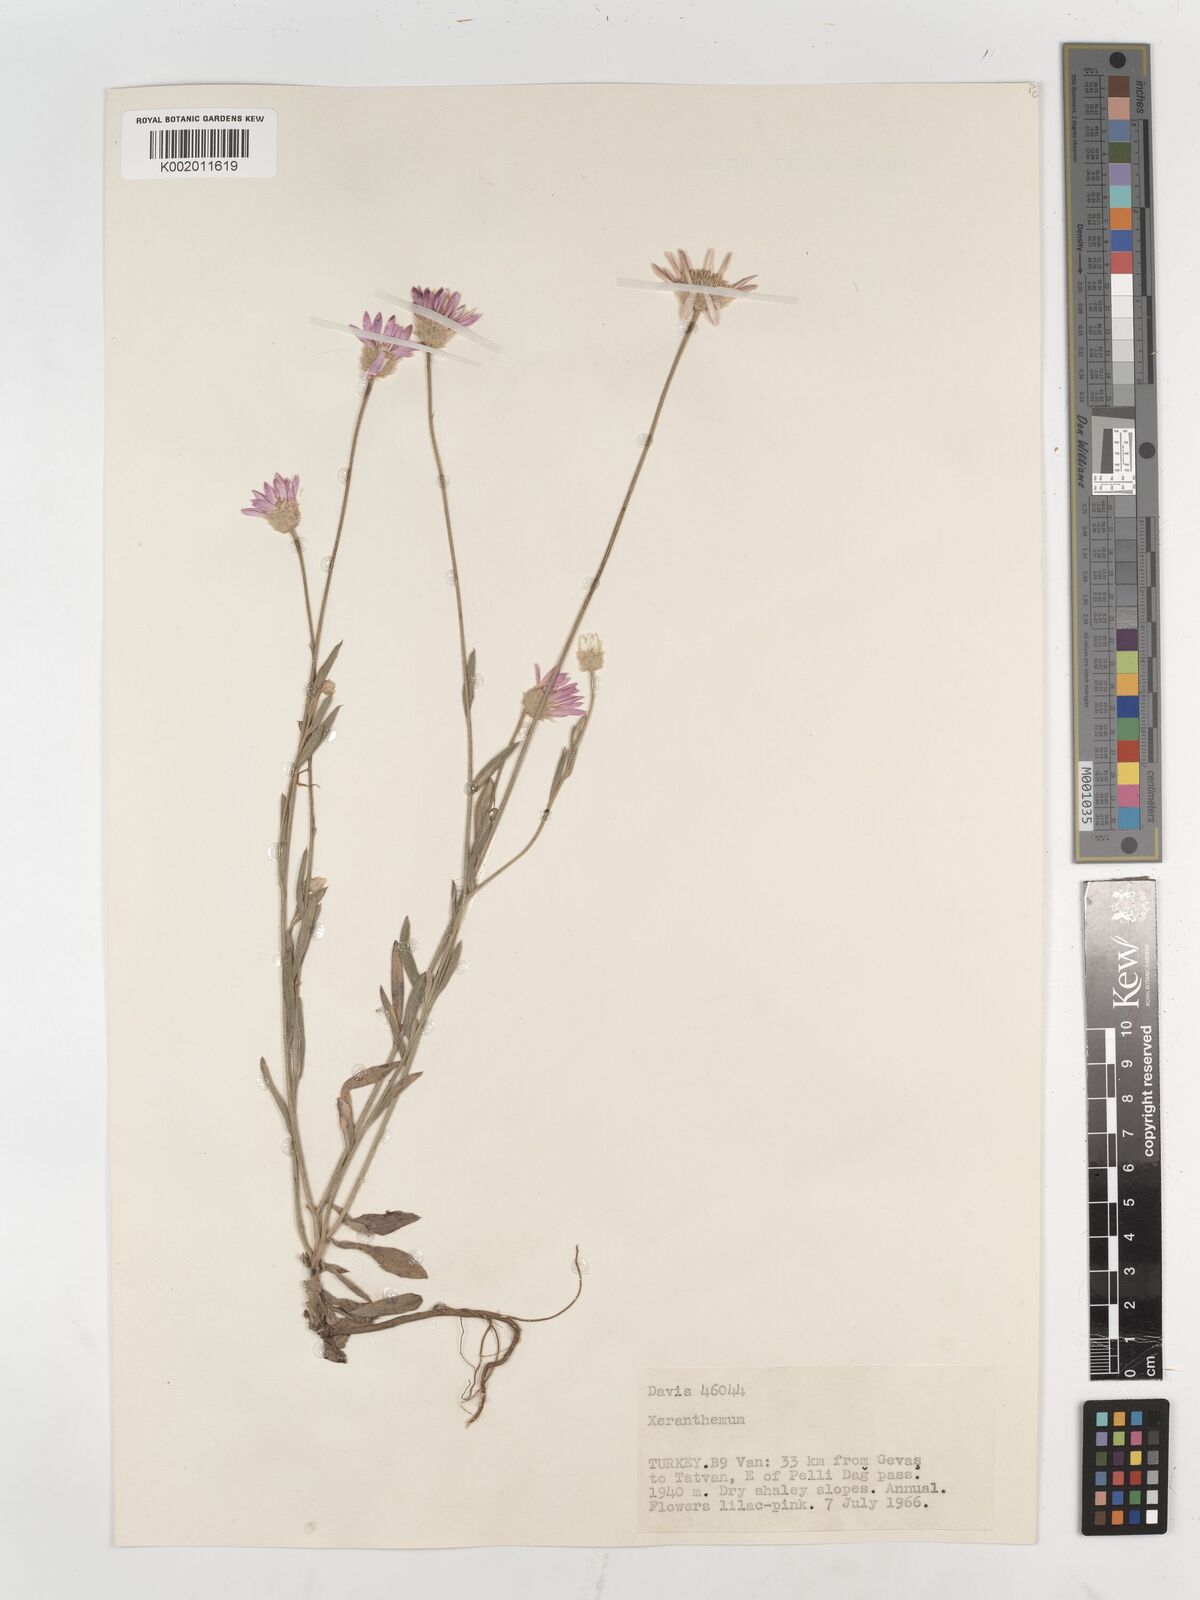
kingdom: Plantae
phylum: Tracheophyta
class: Magnoliopsida
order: Asterales
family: Asteraceae
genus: Xeranthemum
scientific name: Xeranthemum annuum
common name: Immortelle
